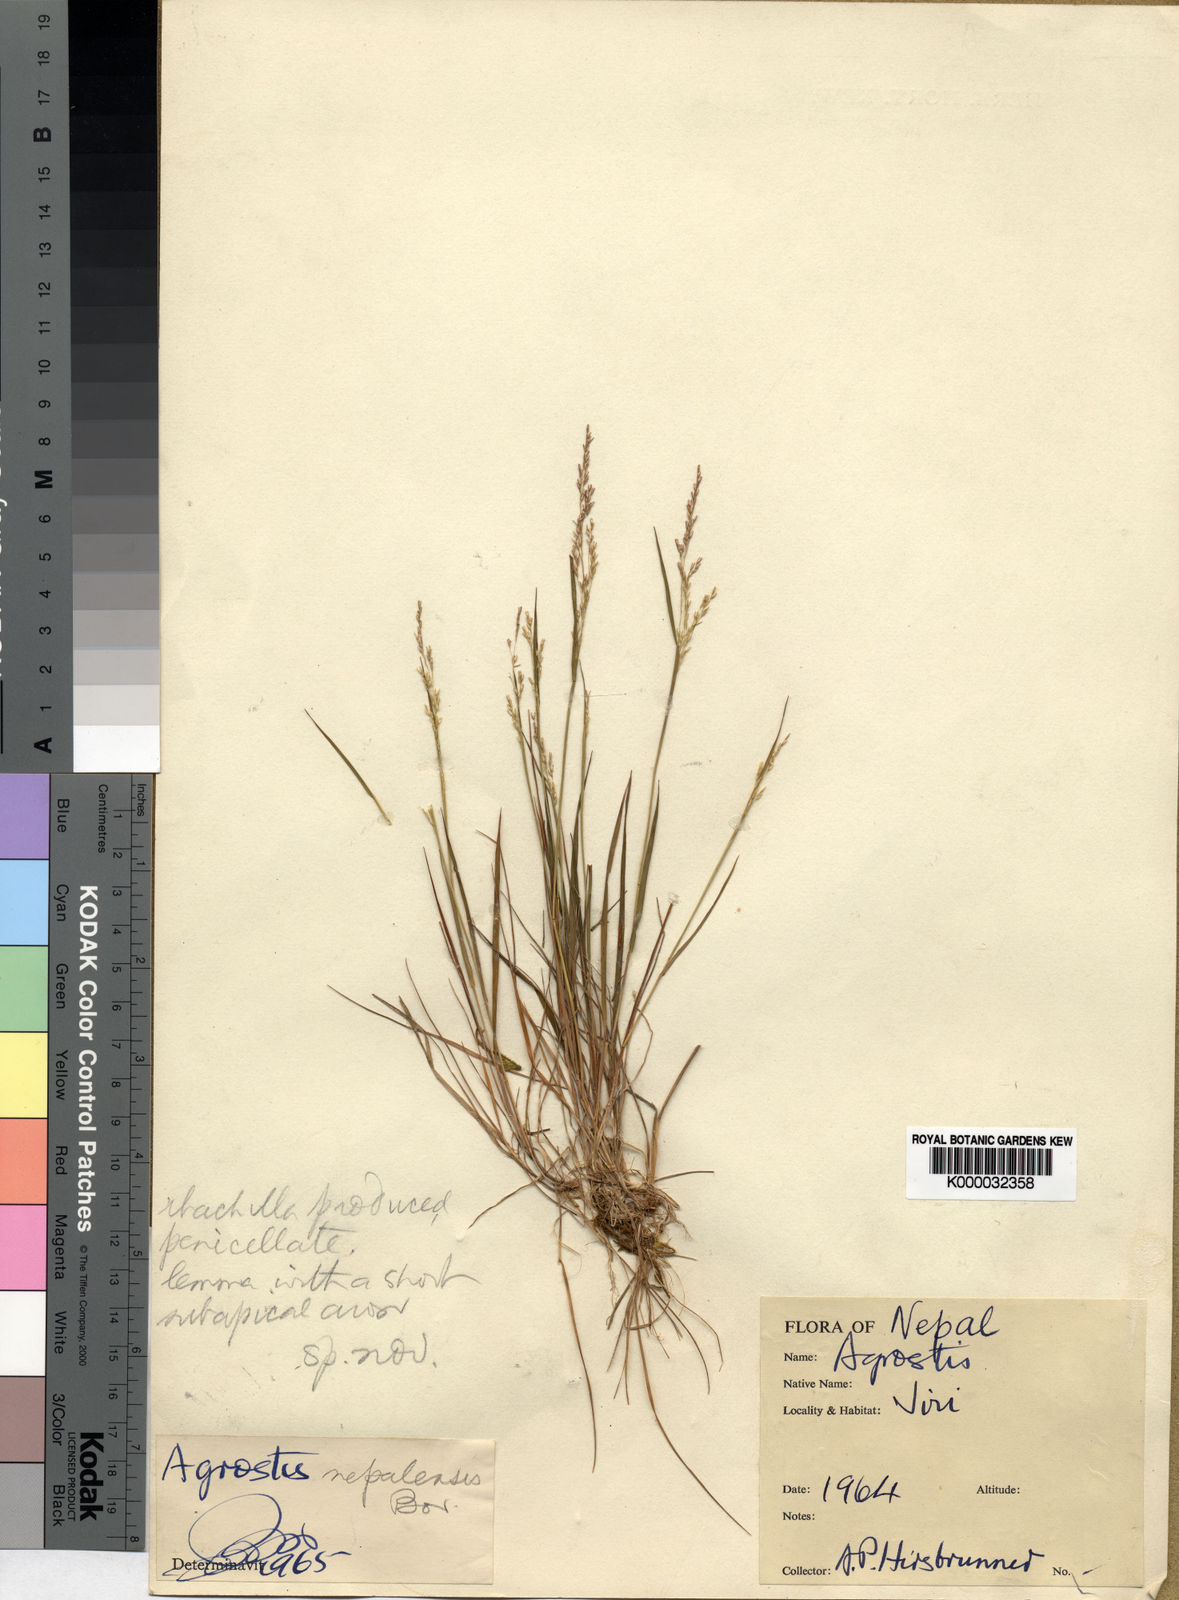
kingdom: Plantae
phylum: Tracheophyta
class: Liliopsida
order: Poales
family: Poaceae
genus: Agrostis
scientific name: Agrostis
